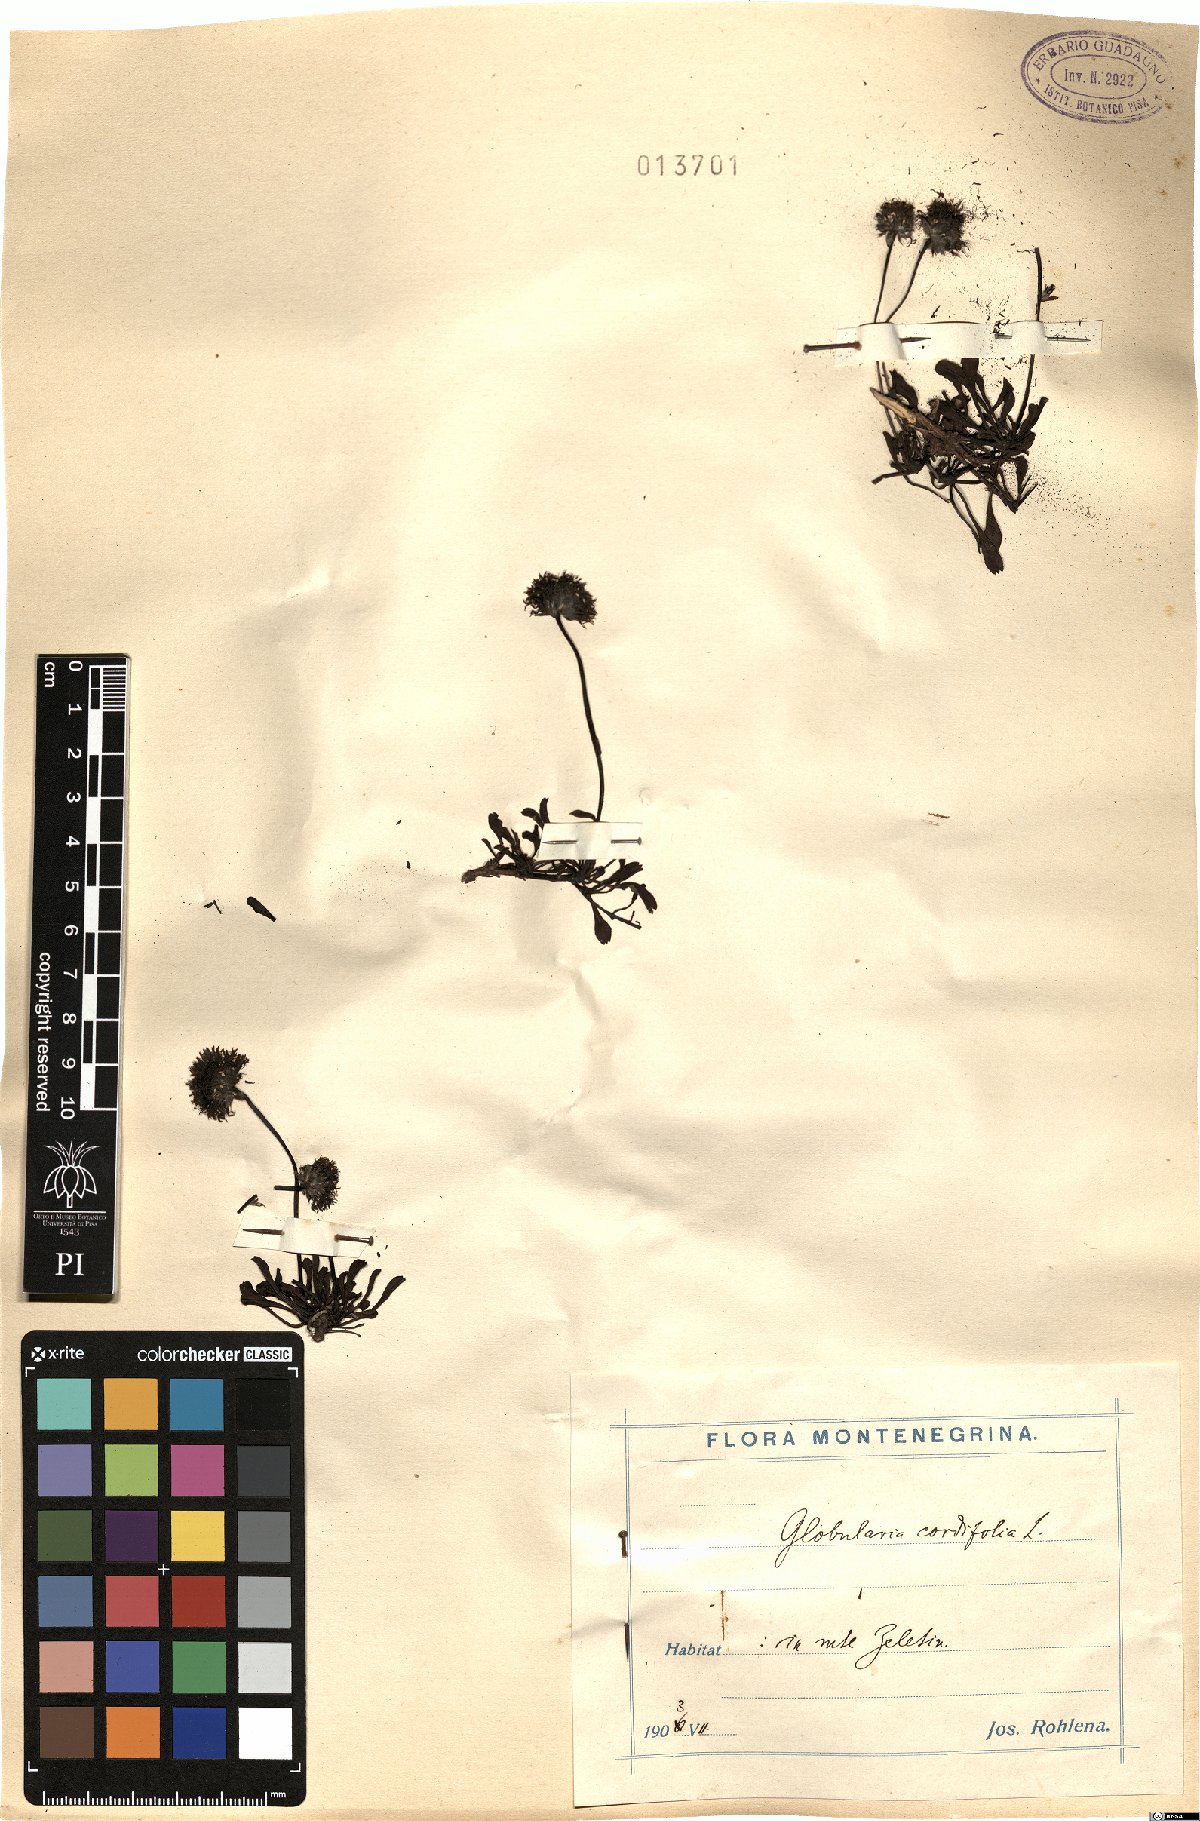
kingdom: Plantae
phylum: Tracheophyta
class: Magnoliopsida
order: Lamiales
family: Plantaginaceae
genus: Globularia
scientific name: Globularia cordifolia
